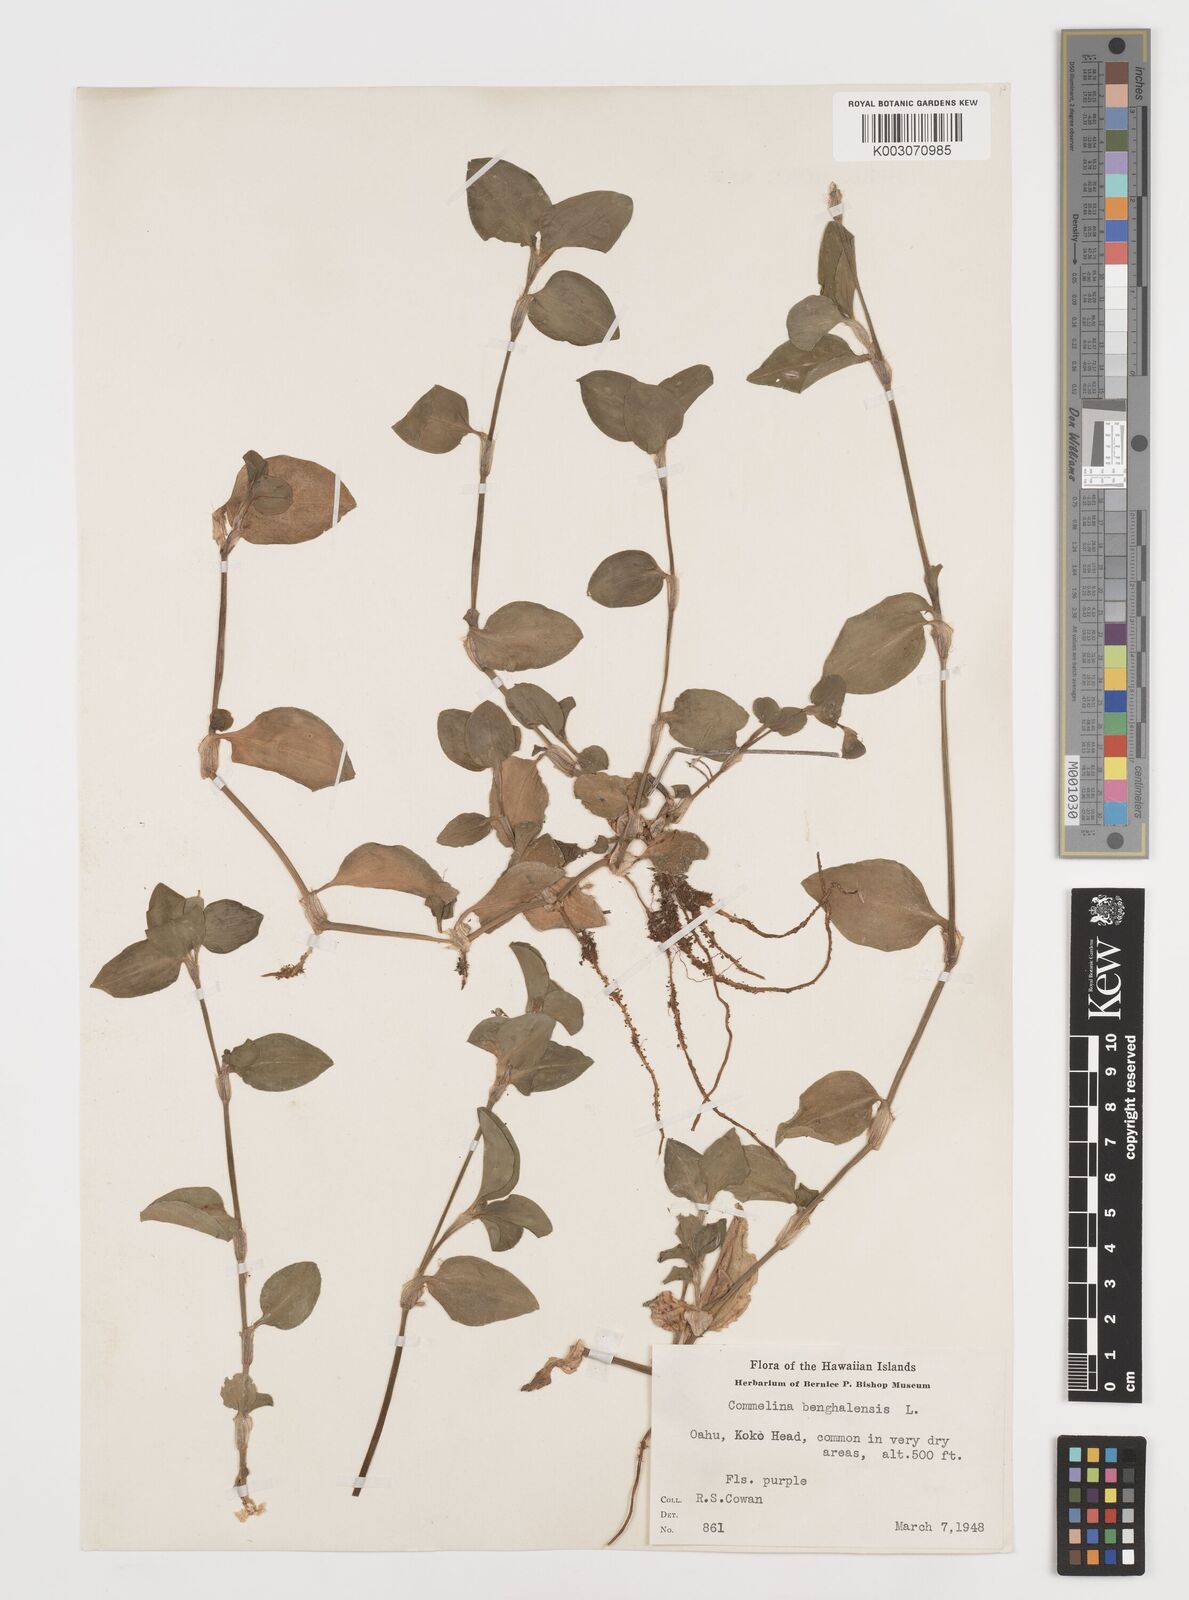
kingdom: Plantae
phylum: Tracheophyta
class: Liliopsida
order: Commelinales
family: Commelinaceae
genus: Commelina
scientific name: Commelina benghalensis
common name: Jio
